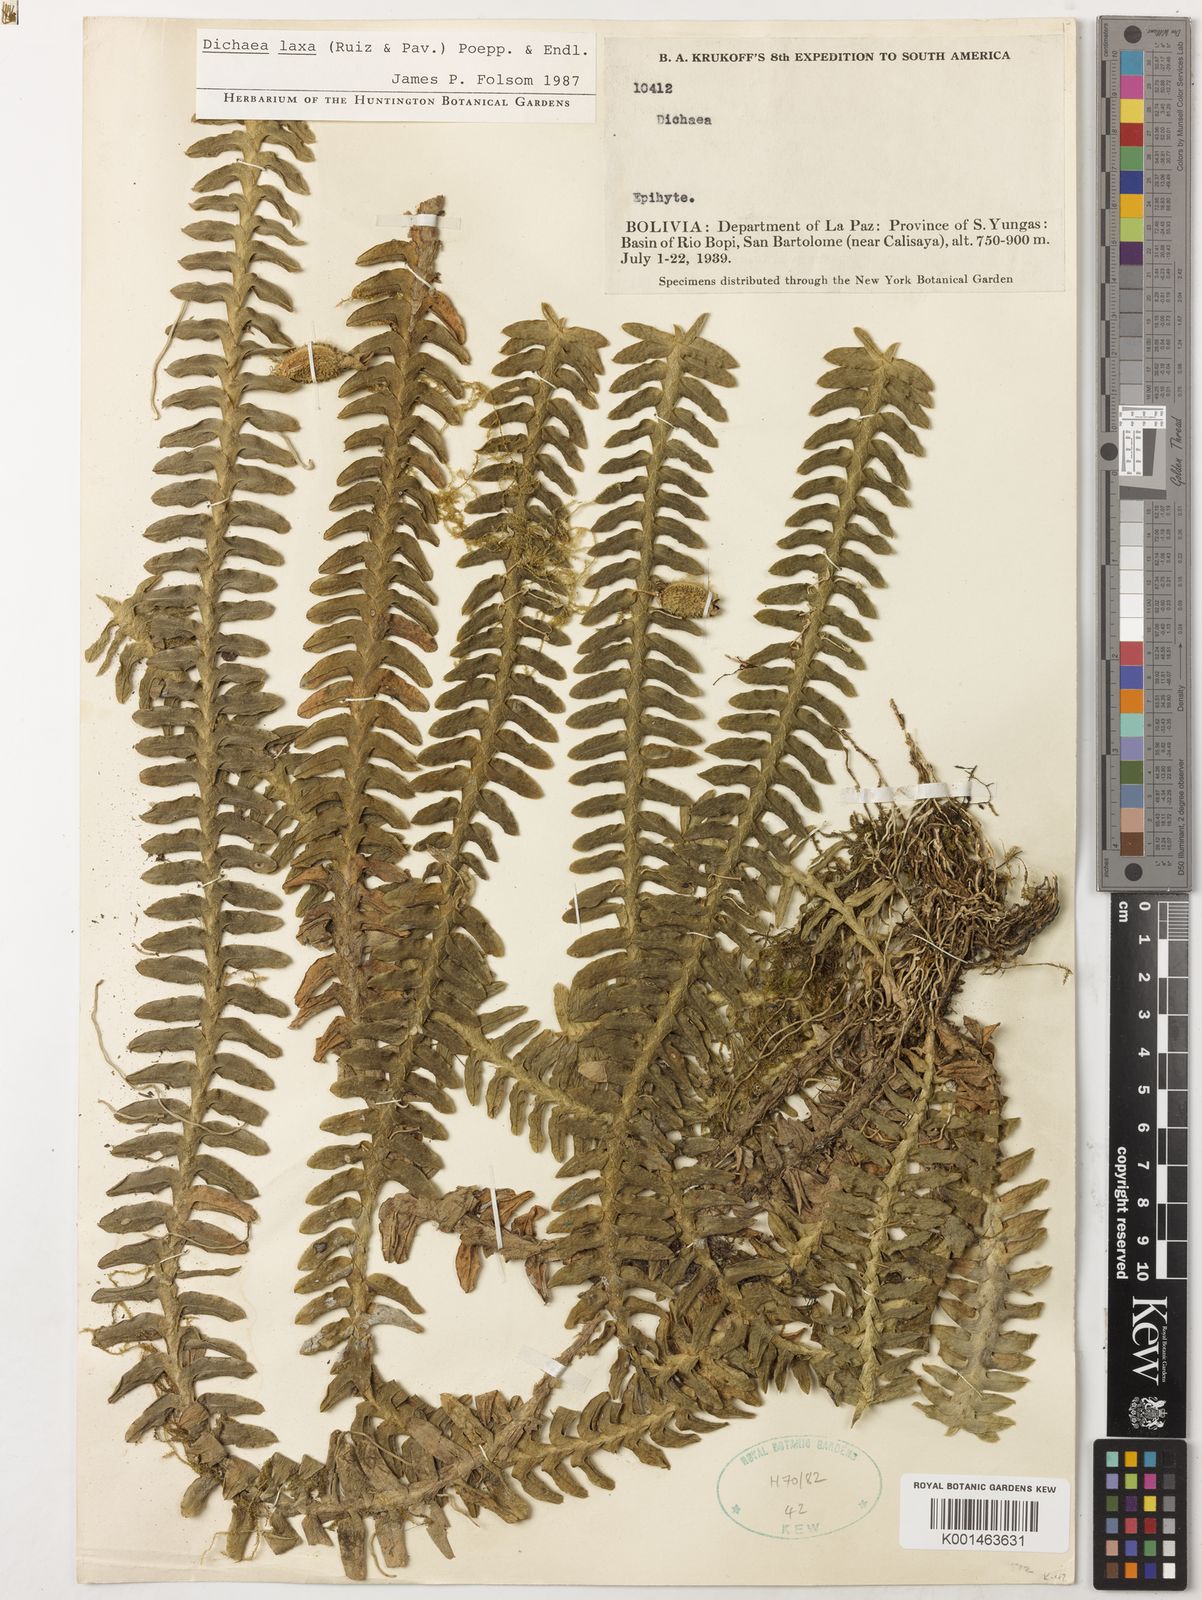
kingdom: Plantae
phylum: Tracheophyta
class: Liliopsida
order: Asparagales
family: Orchidaceae
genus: Dichaea
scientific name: Dichaea laxa
